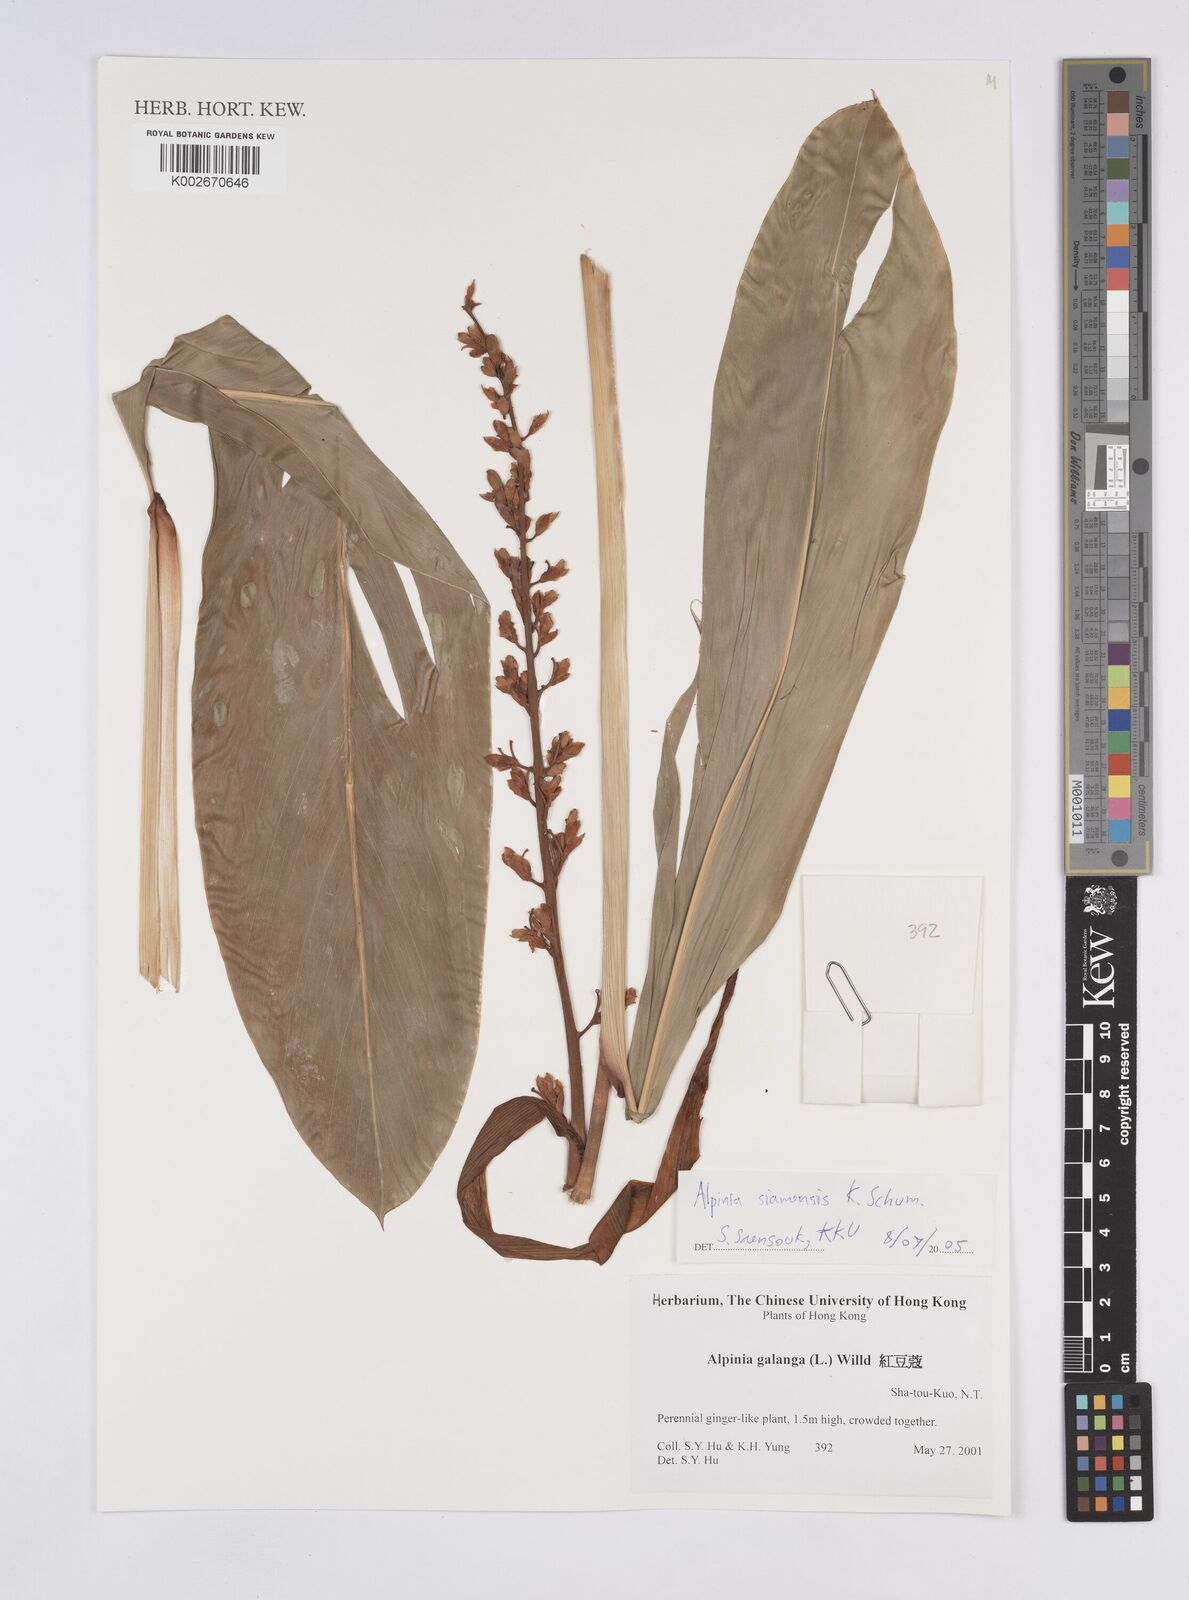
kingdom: Plantae
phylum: Tracheophyta
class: Liliopsida
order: Zingiberales
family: Zingiberaceae
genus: Alpinia
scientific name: Alpinia siamensis
